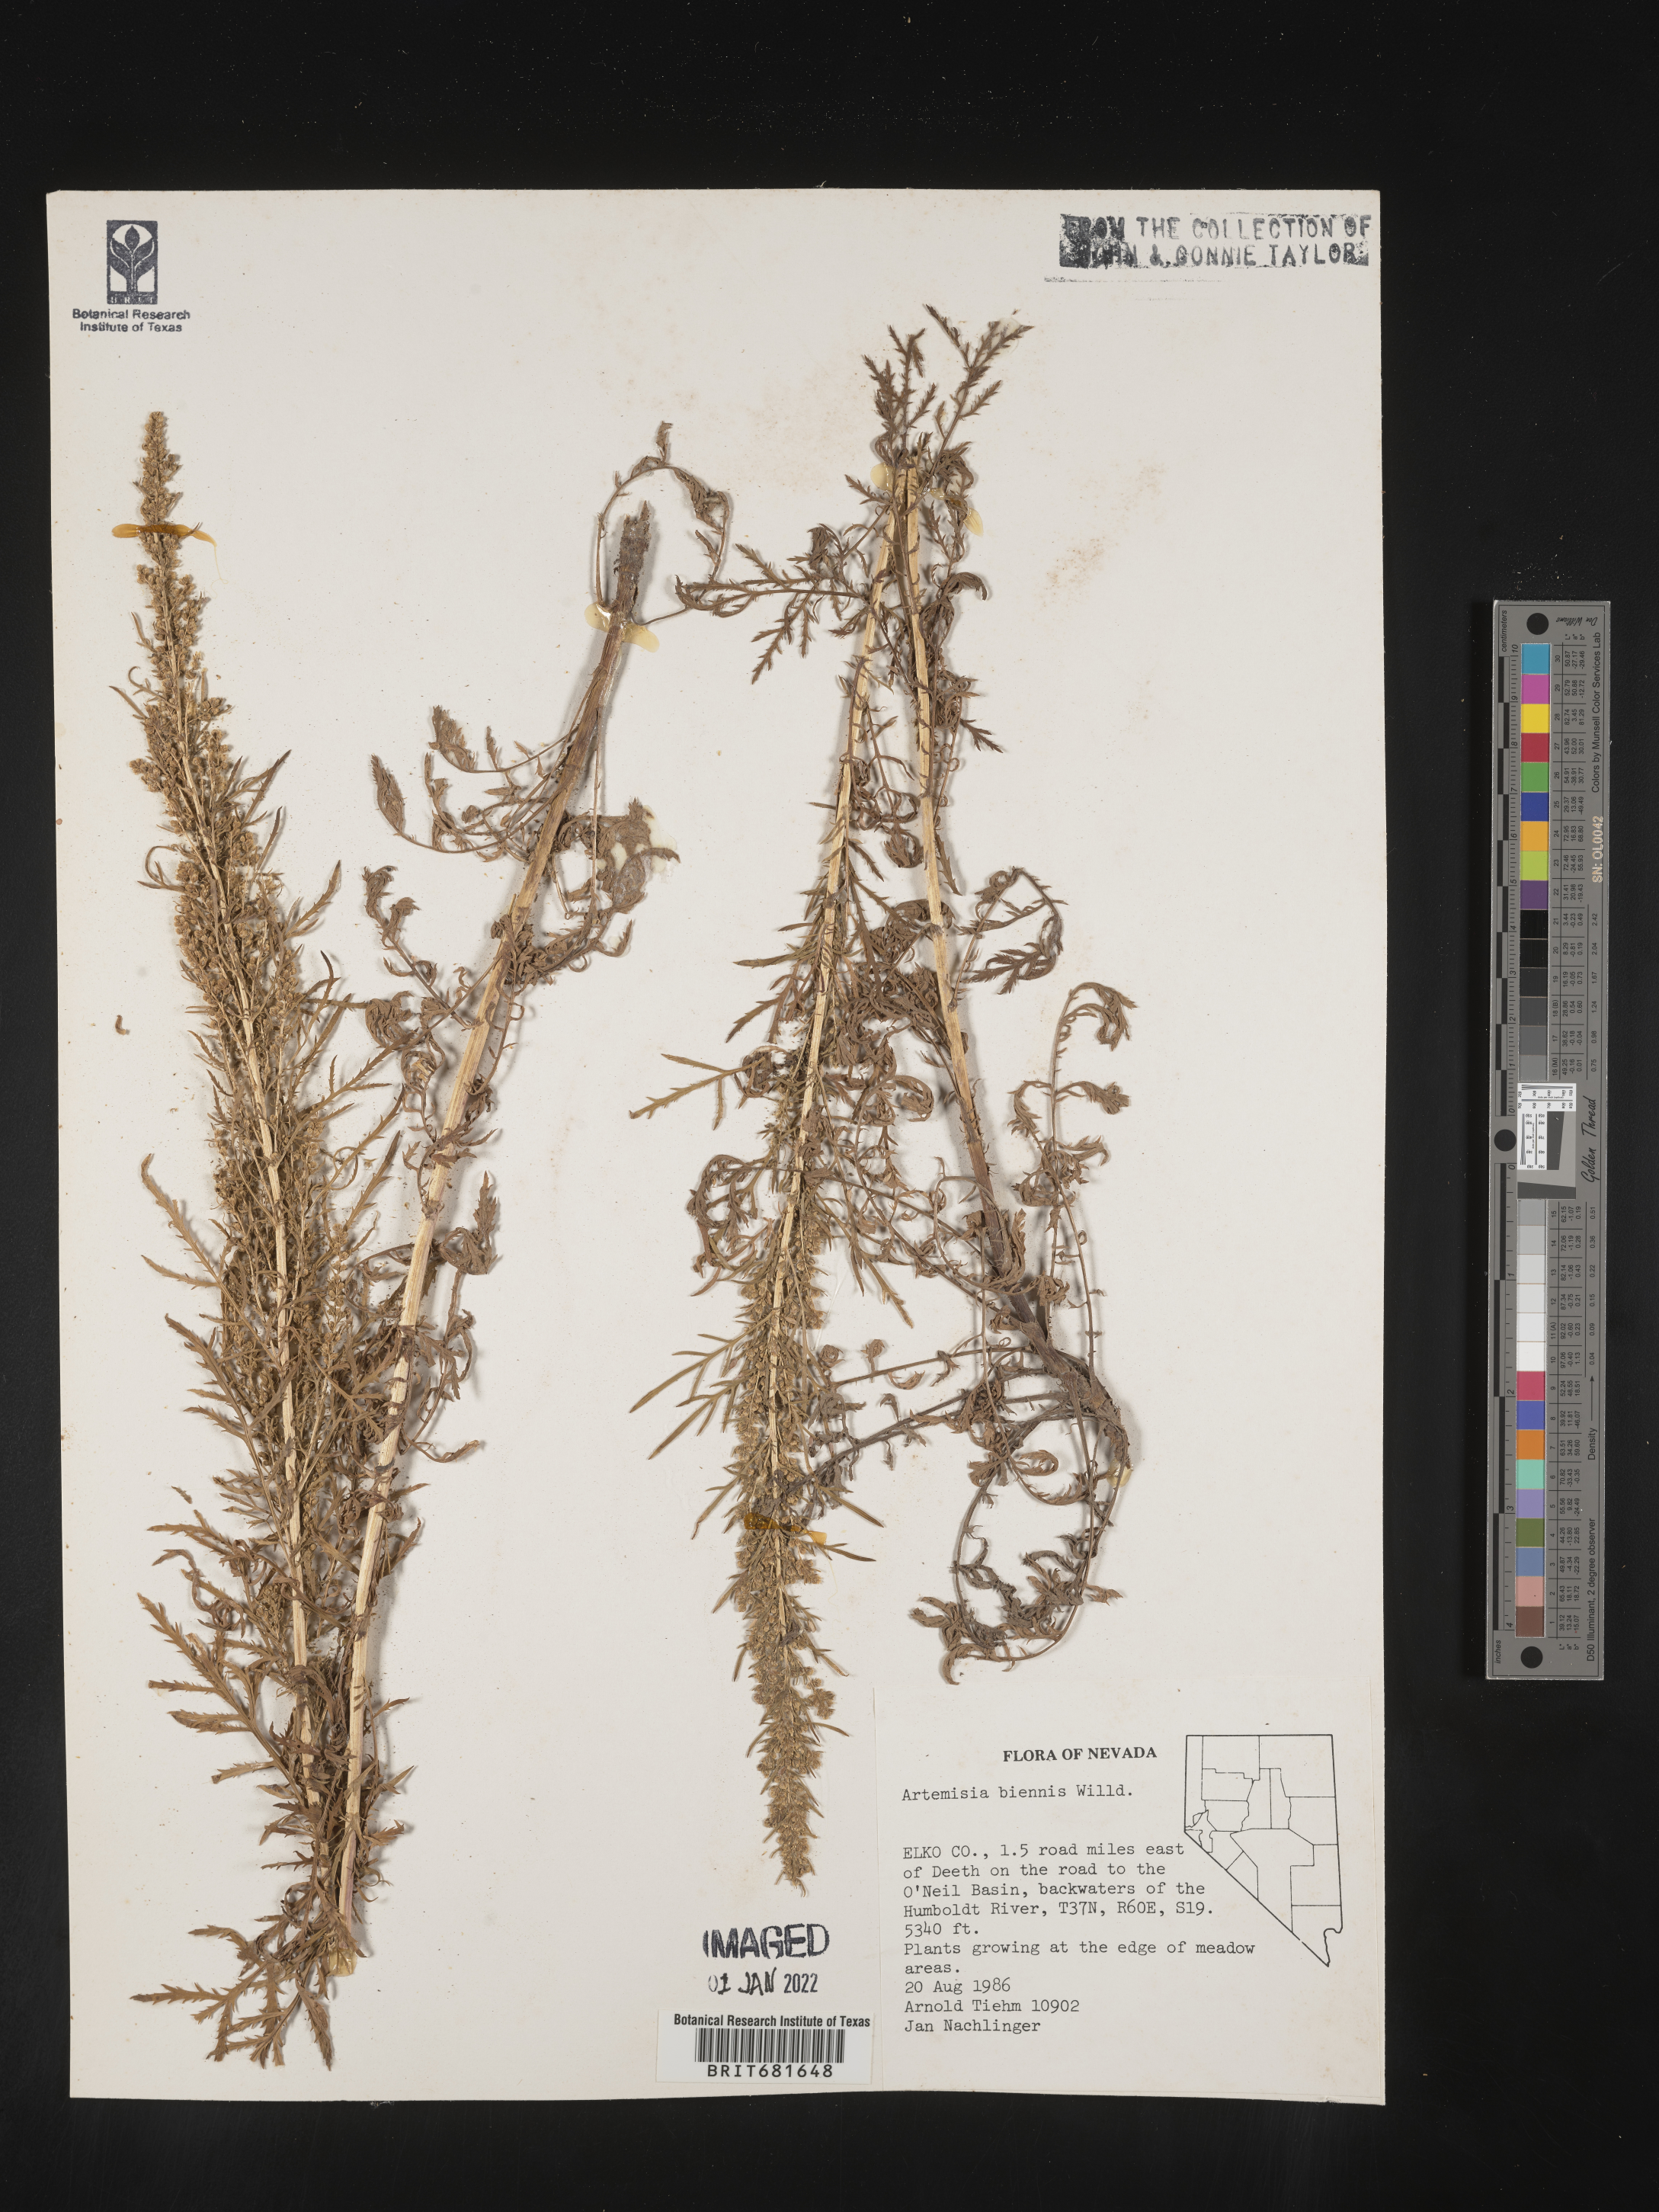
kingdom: Plantae
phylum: Tracheophyta
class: Magnoliopsida
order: Asterales
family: Asteraceae
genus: Artemisia
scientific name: Artemisia biennis
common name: Biennial wormwood
